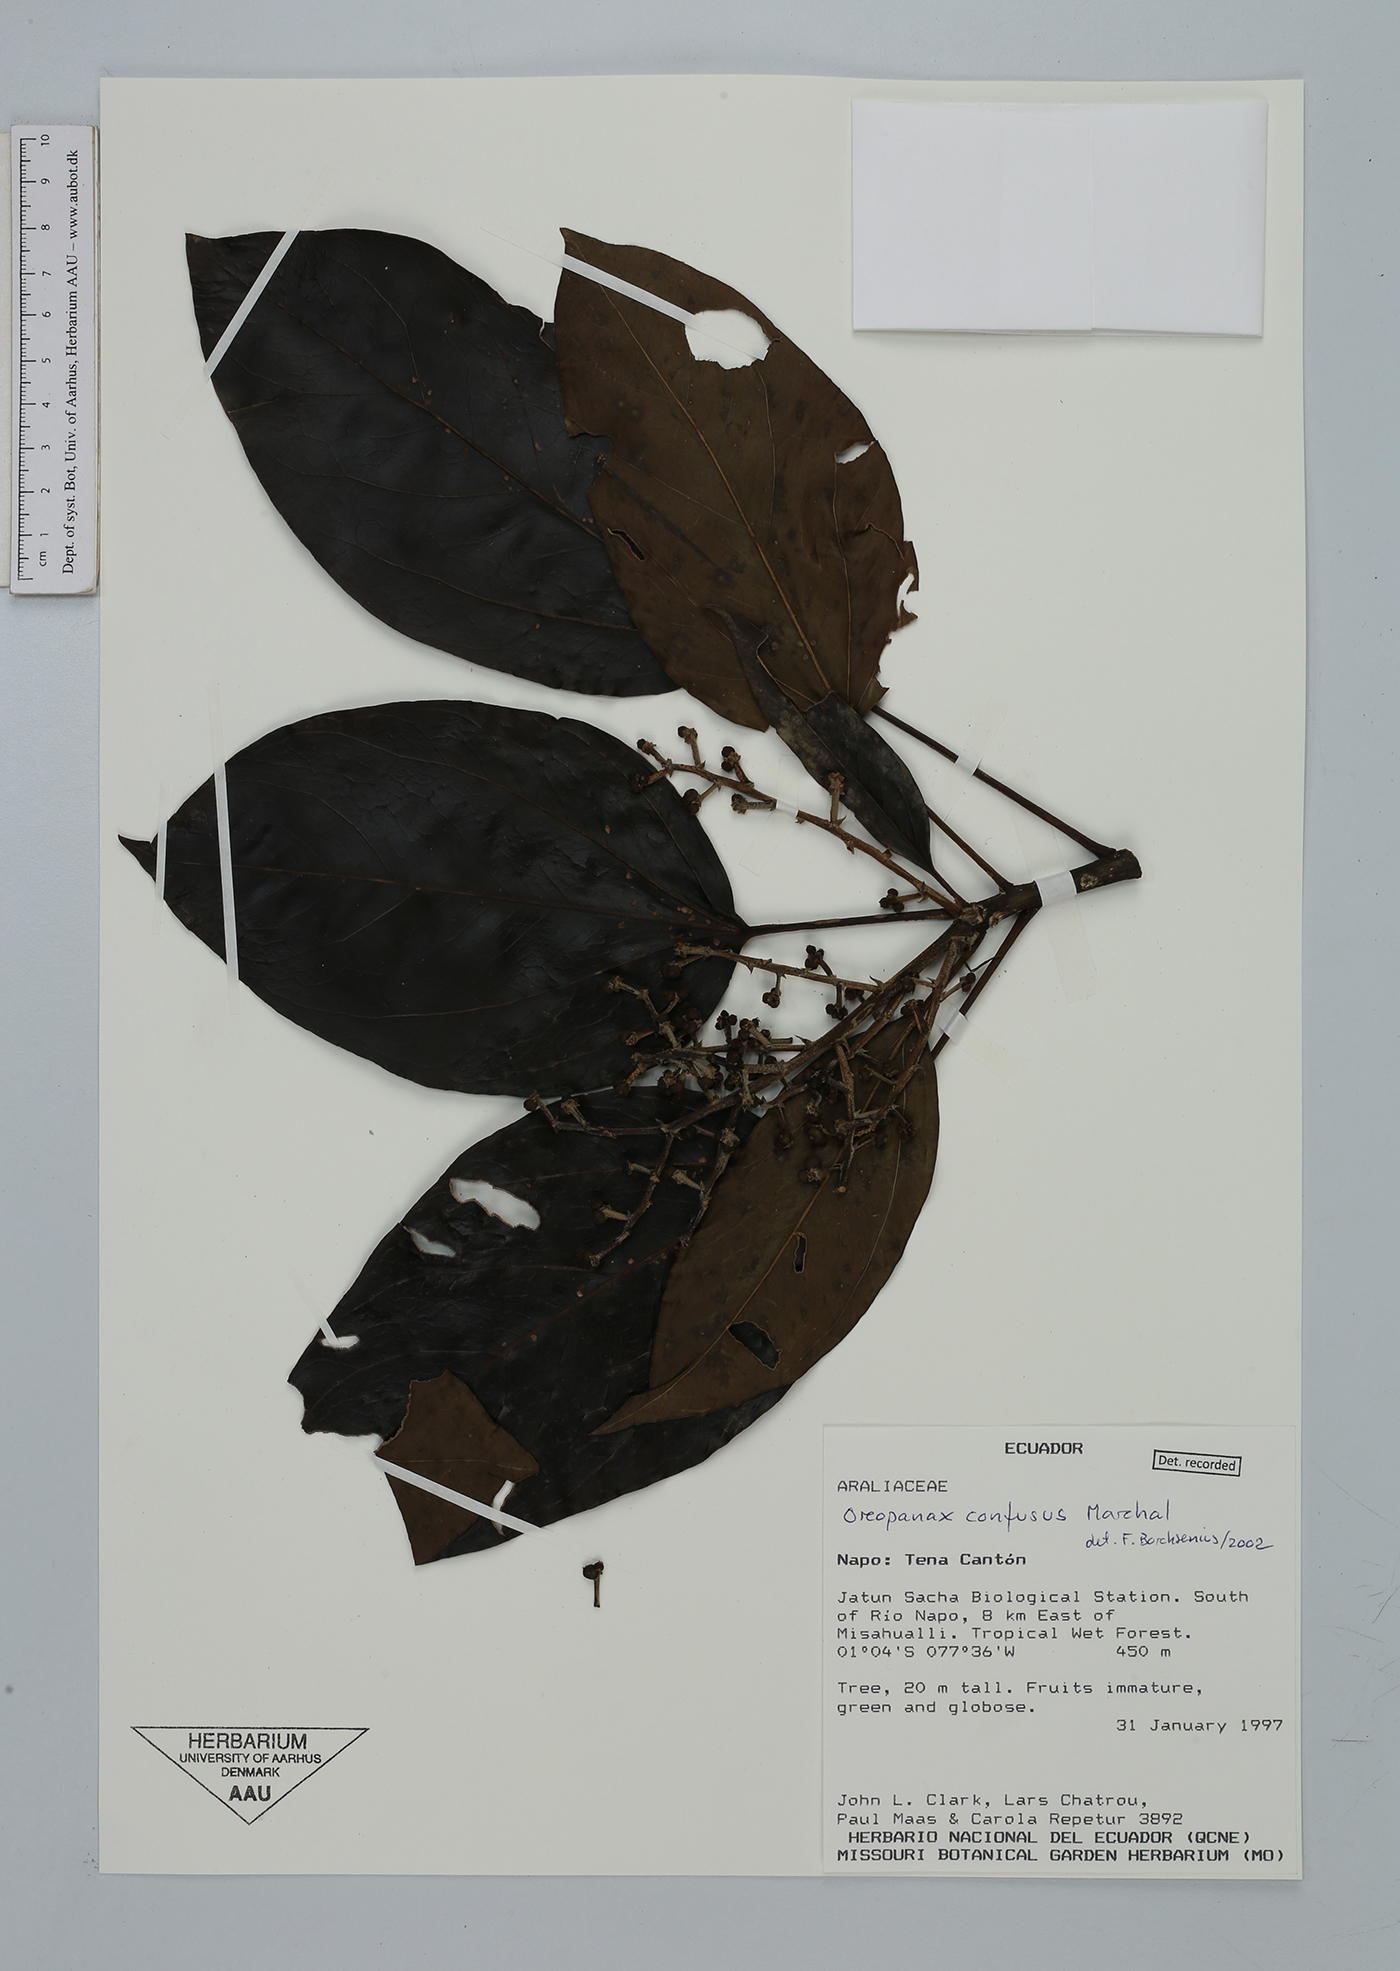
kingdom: Plantae
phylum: Tracheophyta
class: Magnoliopsida
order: Apiales
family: Araliaceae
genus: Oreopanax
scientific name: Oreopanax confusus
